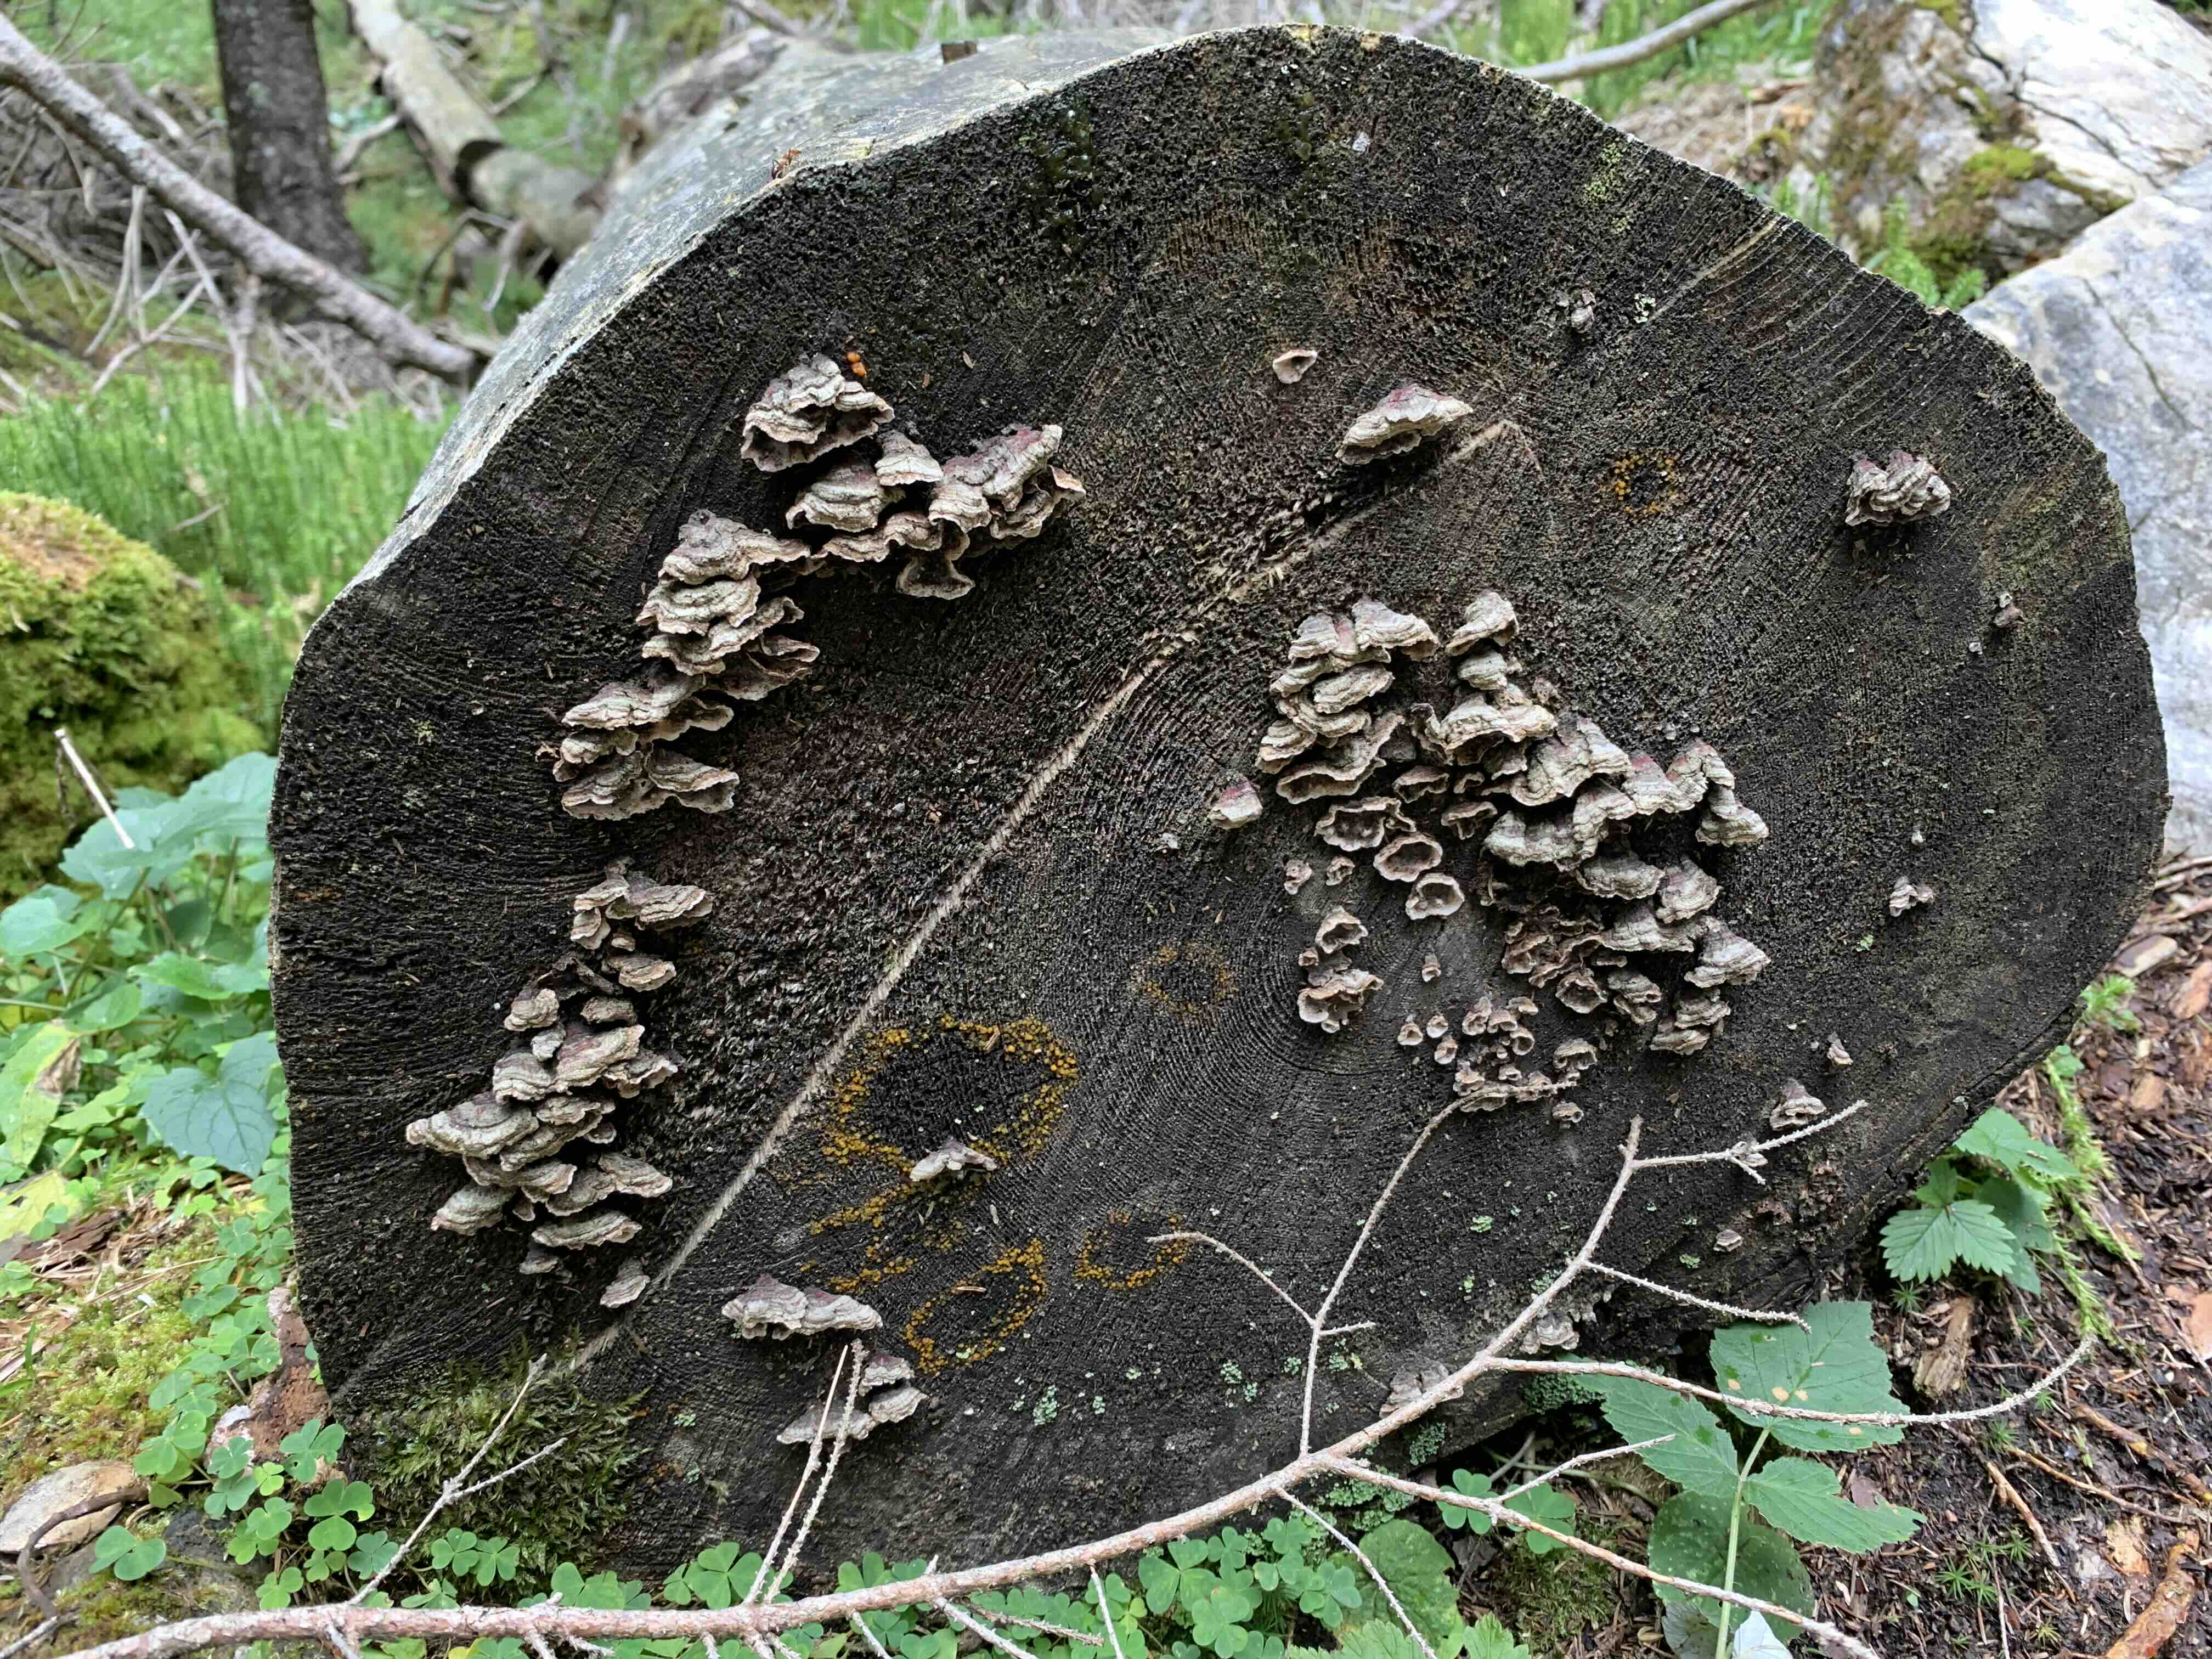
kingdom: Fungi
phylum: Basidiomycota
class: Agaricomycetes
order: Agaricales
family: Cyphellaceae
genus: Chondrostereum
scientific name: Chondrostereum purpureum
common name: purpurlædersvamp
